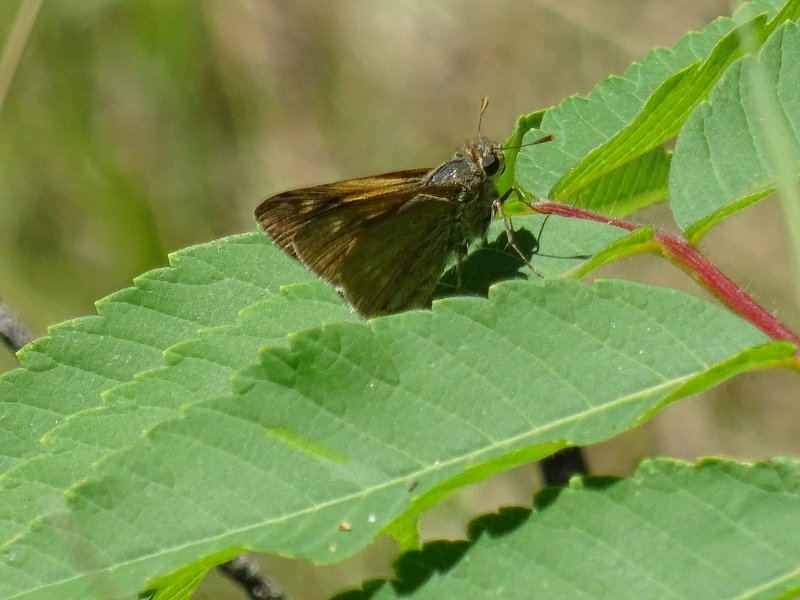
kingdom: Animalia
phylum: Arthropoda
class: Insecta
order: Lepidoptera
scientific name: Lepidoptera
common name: Butterflies
